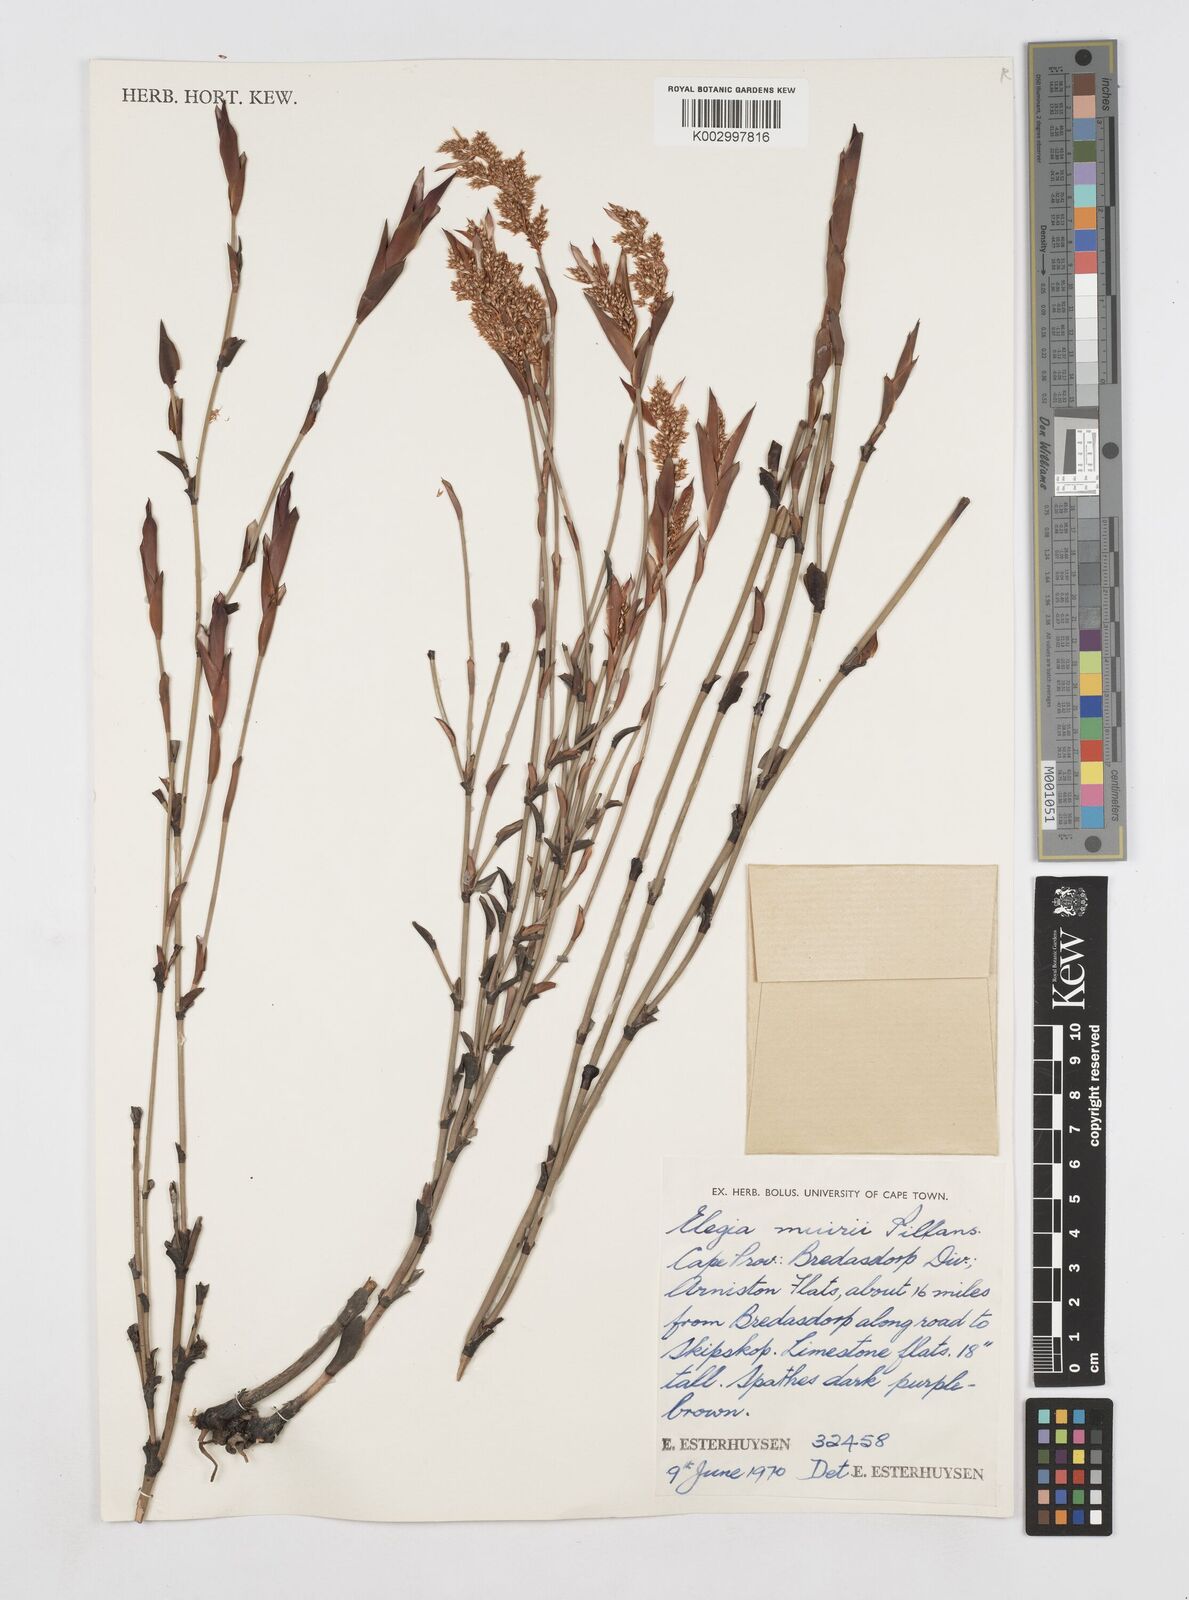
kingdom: Plantae
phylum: Tracheophyta
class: Liliopsida
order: Poales
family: Restionaceae
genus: Elegia
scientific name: Elegia muirii
